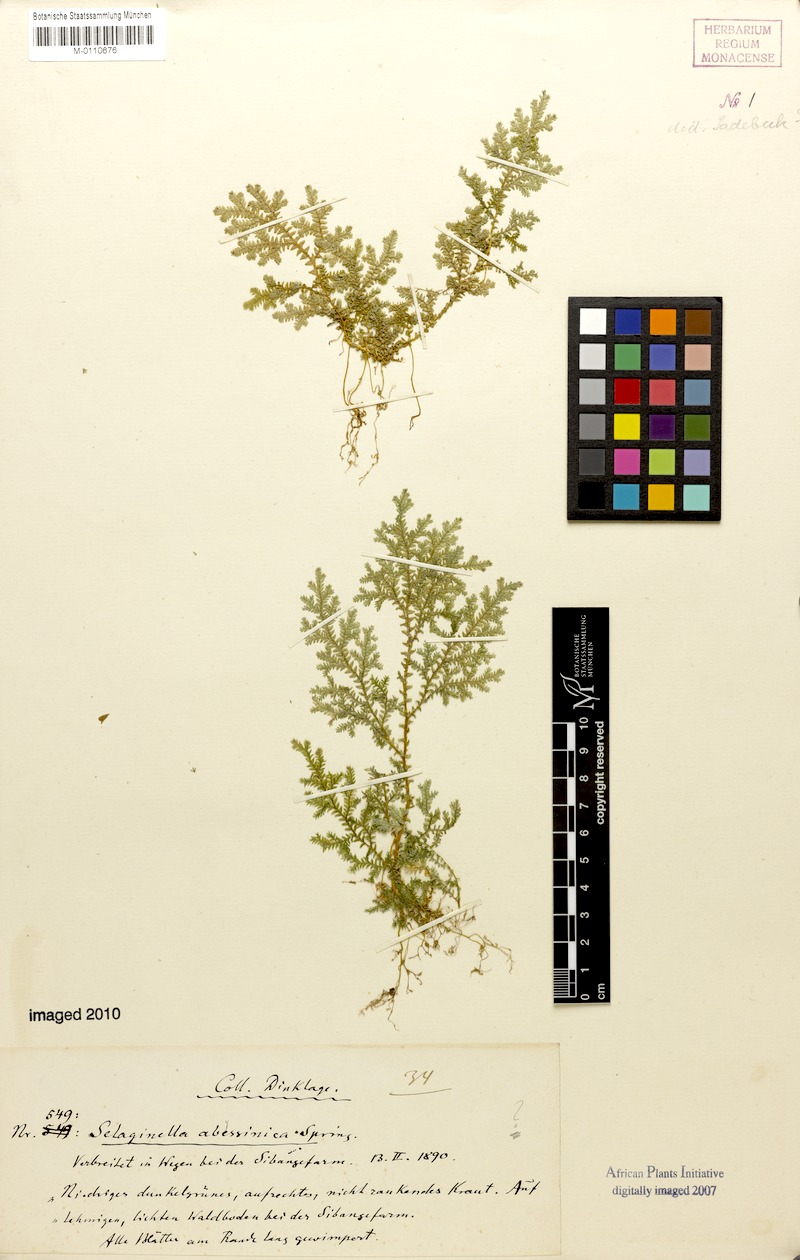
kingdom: Plantae
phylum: Tracheophyta
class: Lycopodiopsida
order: Selaginellales
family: Selaginellaceae
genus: Selaginella
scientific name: Selaginella goudotiana
